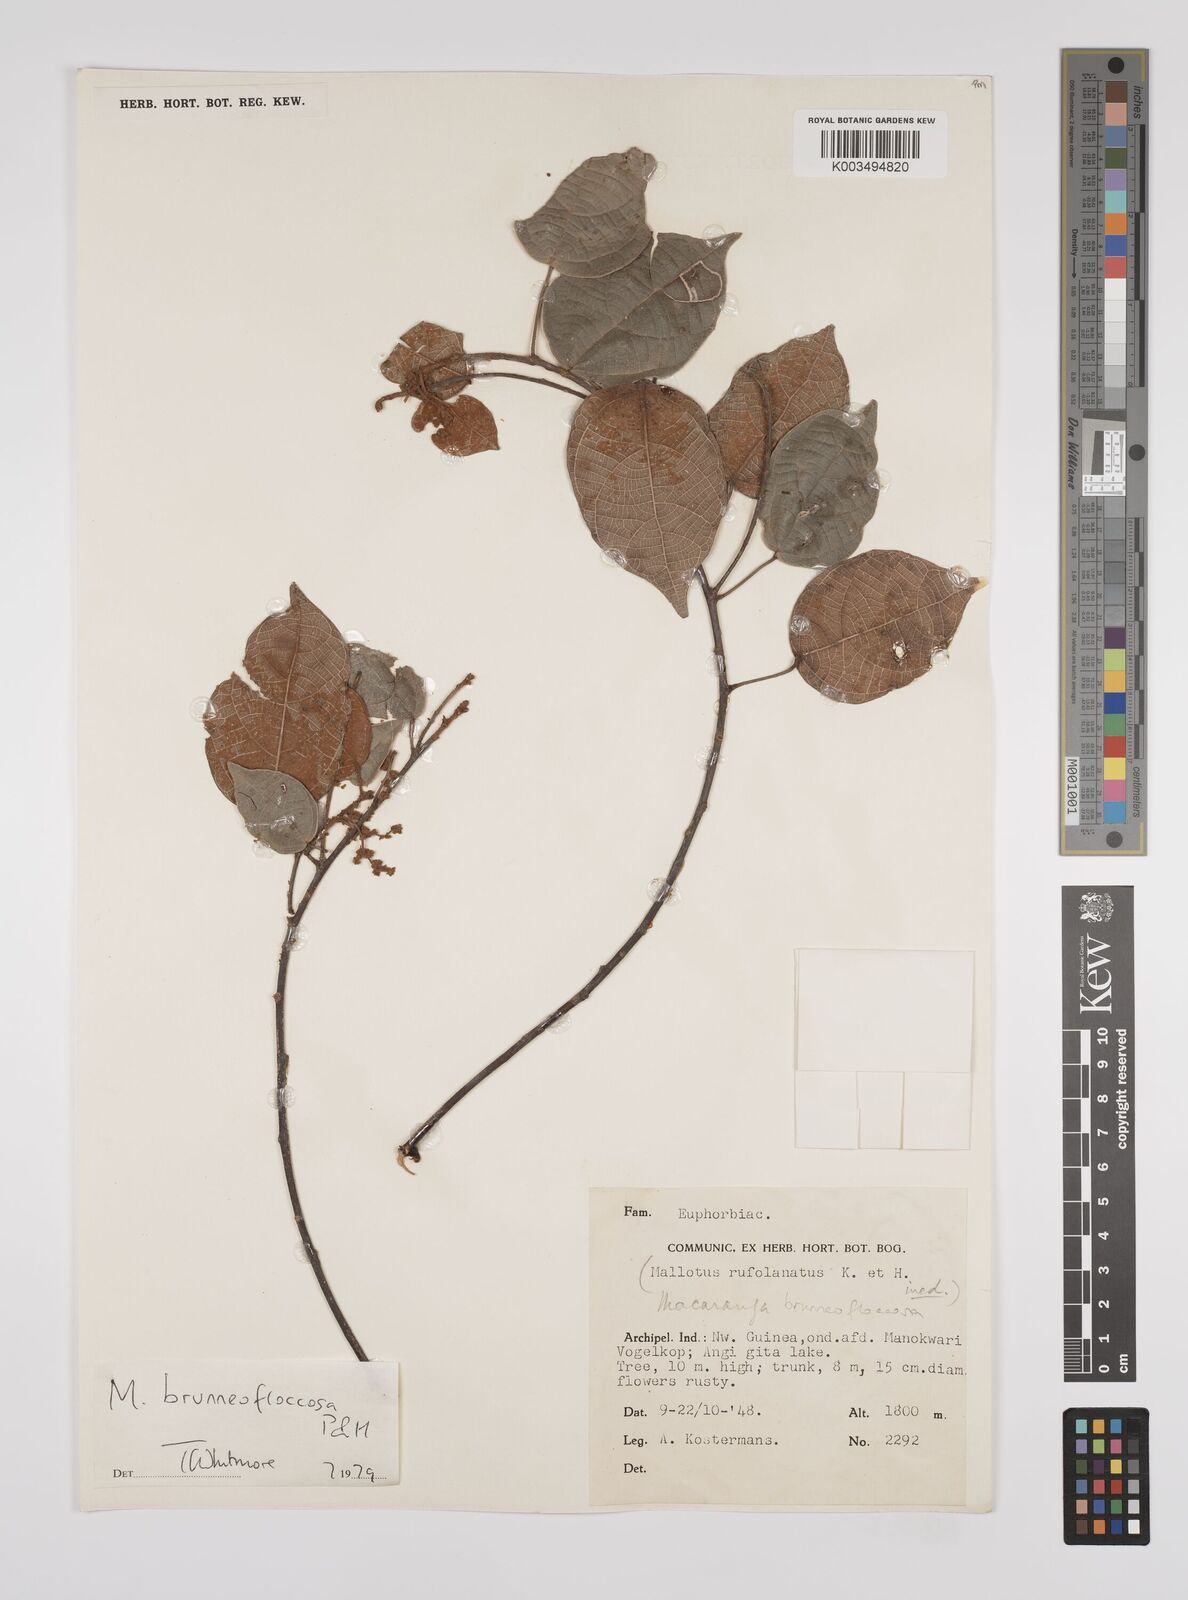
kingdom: Plantae
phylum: Tracheophyta
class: Magnoliopsida
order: Malpighiales
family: Euphorbiaceae
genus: Macaranga
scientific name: Macaranga brunneofloccosa
